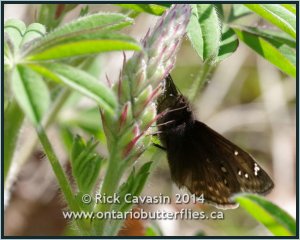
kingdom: Animalia
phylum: Arthropoda
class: Insecta
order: Lepidoptera
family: Hesperiidae
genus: Gesta
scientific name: Gesta
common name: Juvenal's Duskywing
